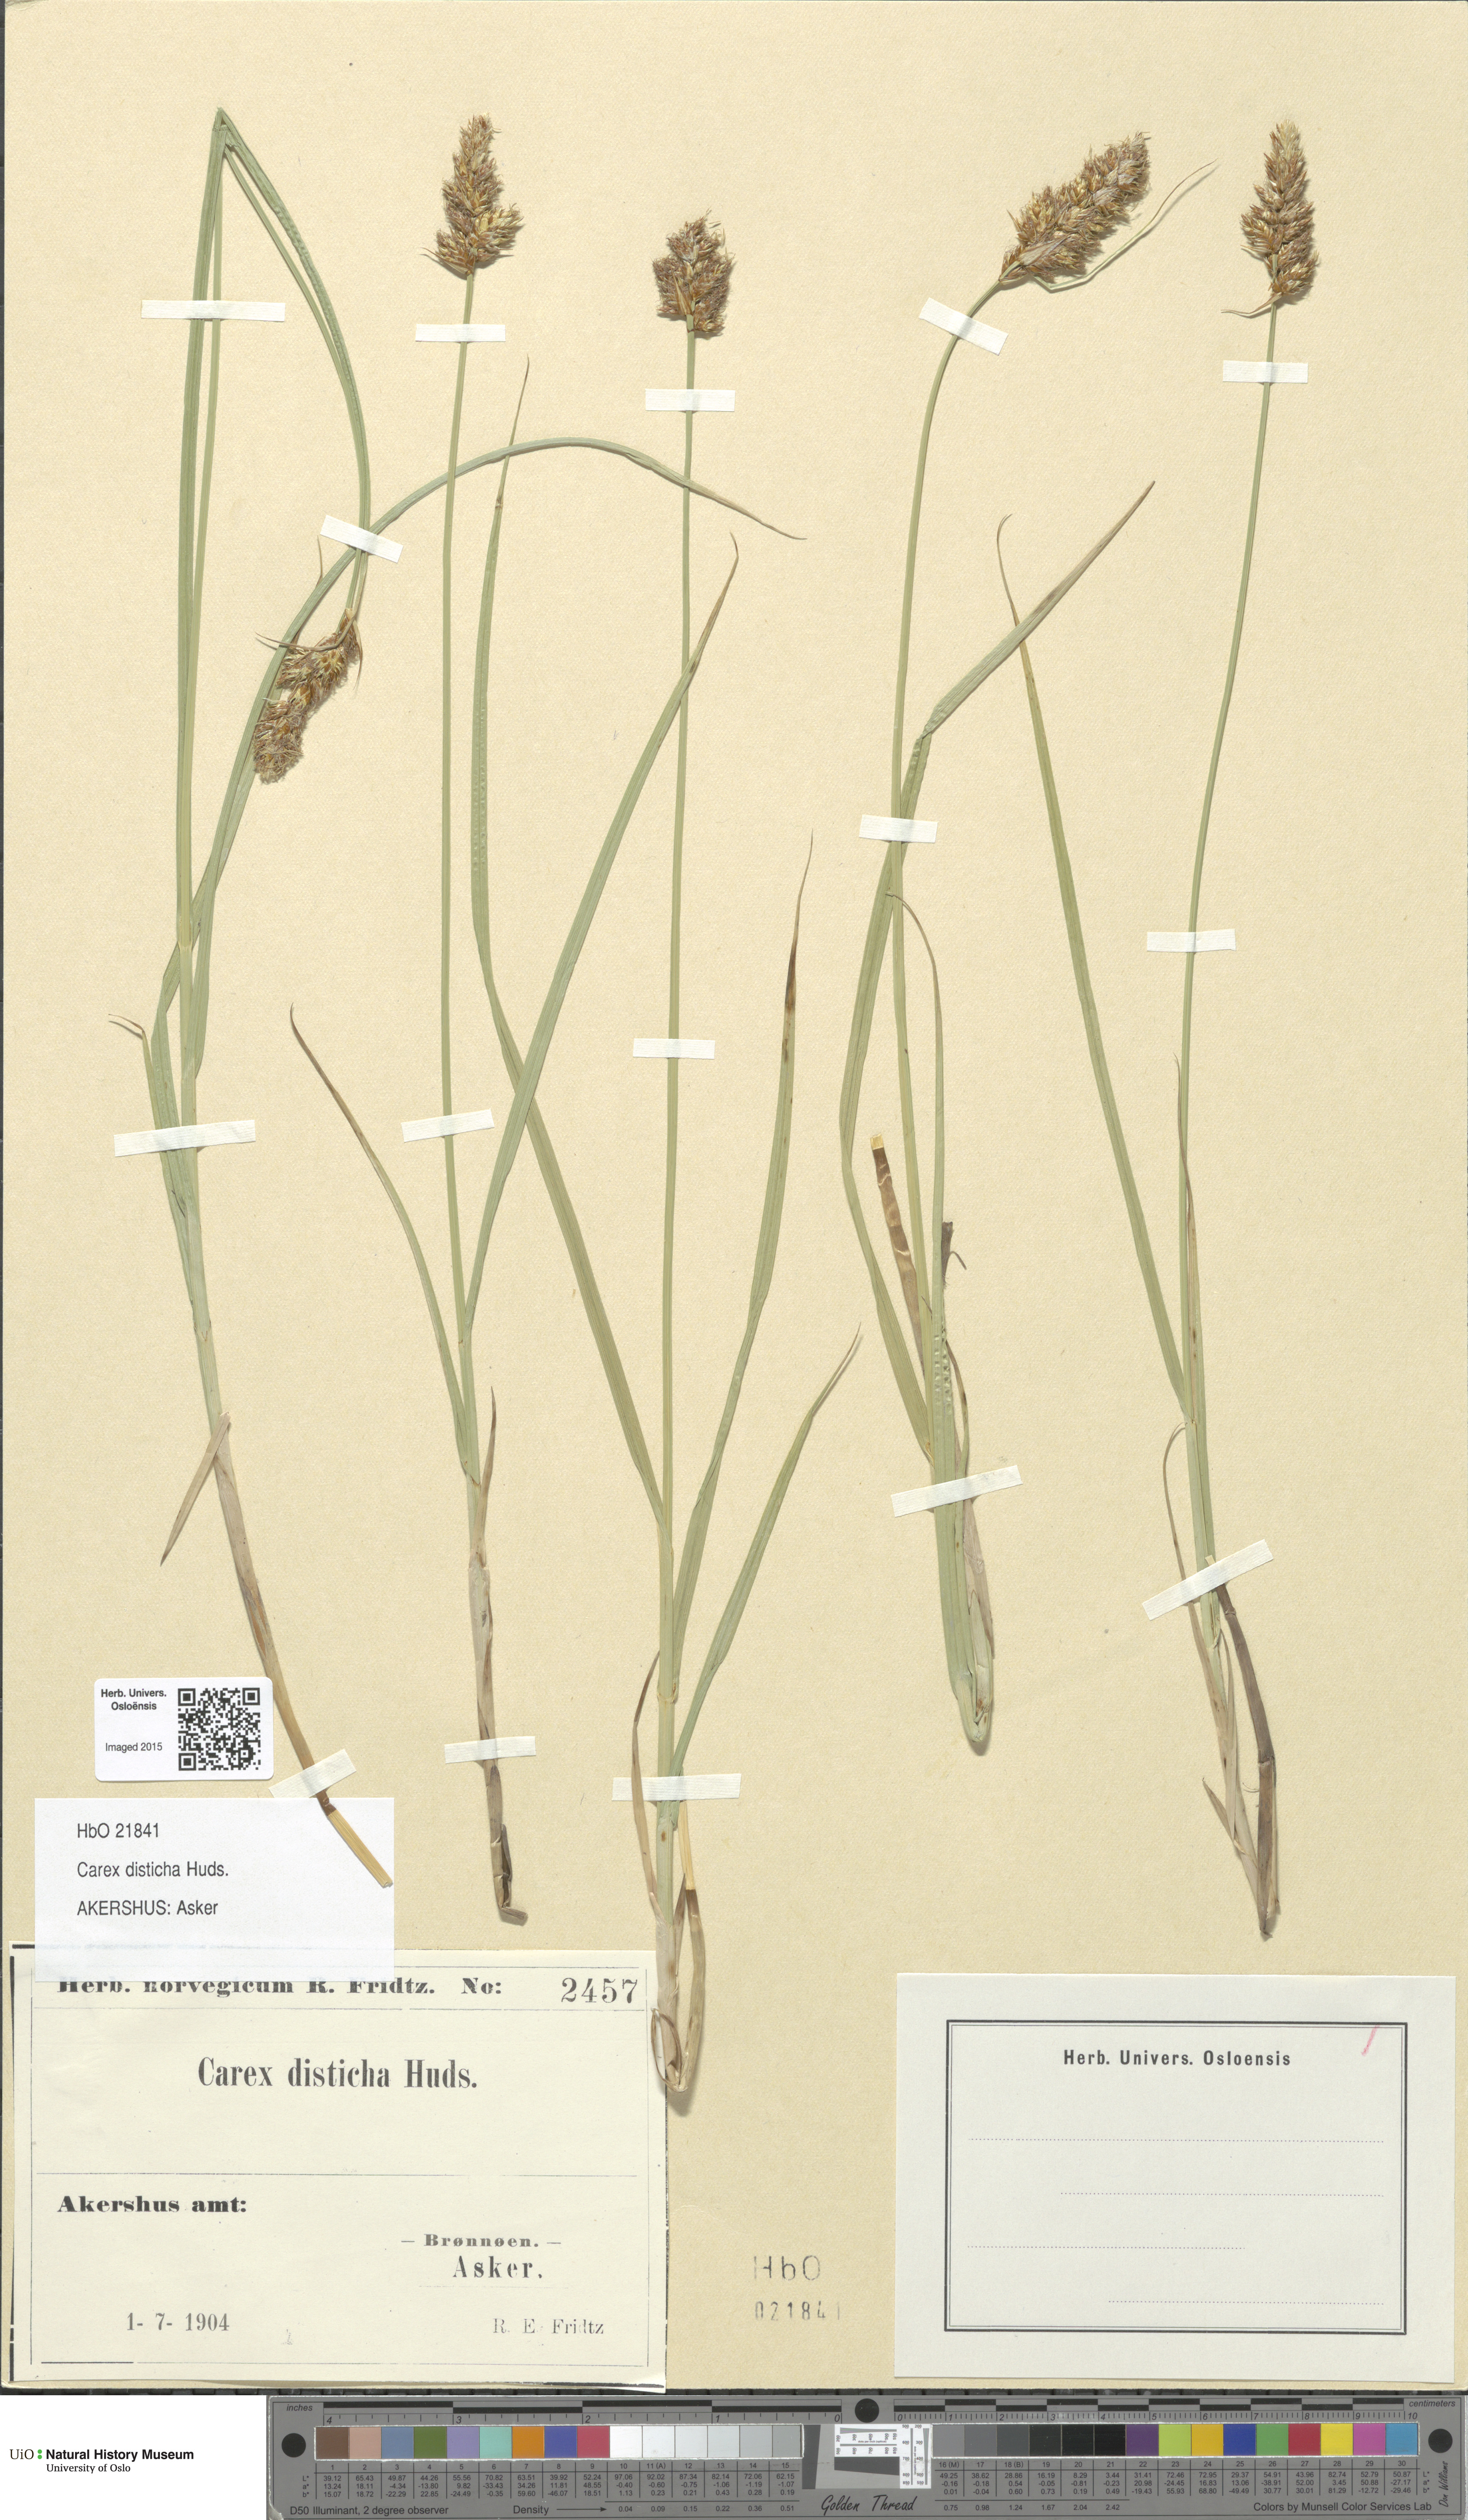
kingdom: Plantae
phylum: Tracheophyta
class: Liliopsida
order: Poales
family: Cyperaceae
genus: Carex
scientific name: Carex disticha
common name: Brown sedge
